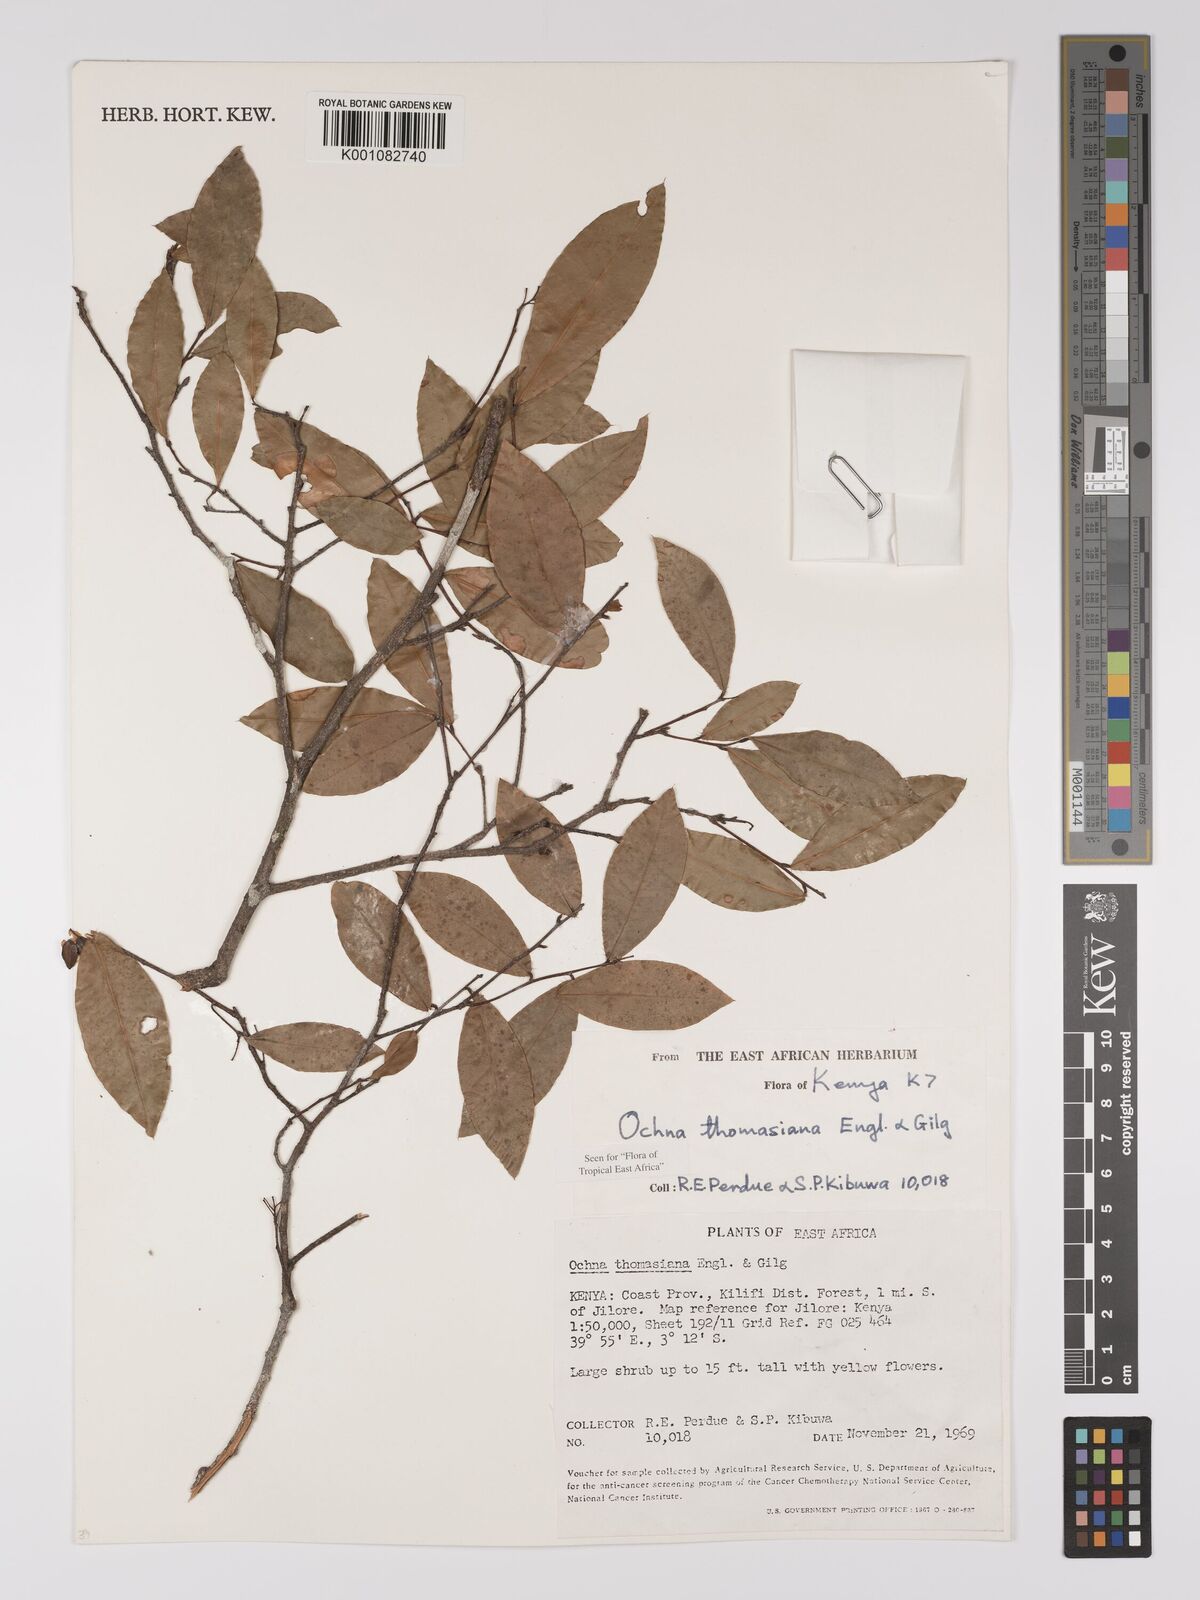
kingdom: Plantae
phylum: Tracheophyta
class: Magnoliopsida
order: Malpighiales
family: Ochnaceae
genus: Ochna
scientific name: Ochna thomasiana
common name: Thomas' bird's-eye bush
